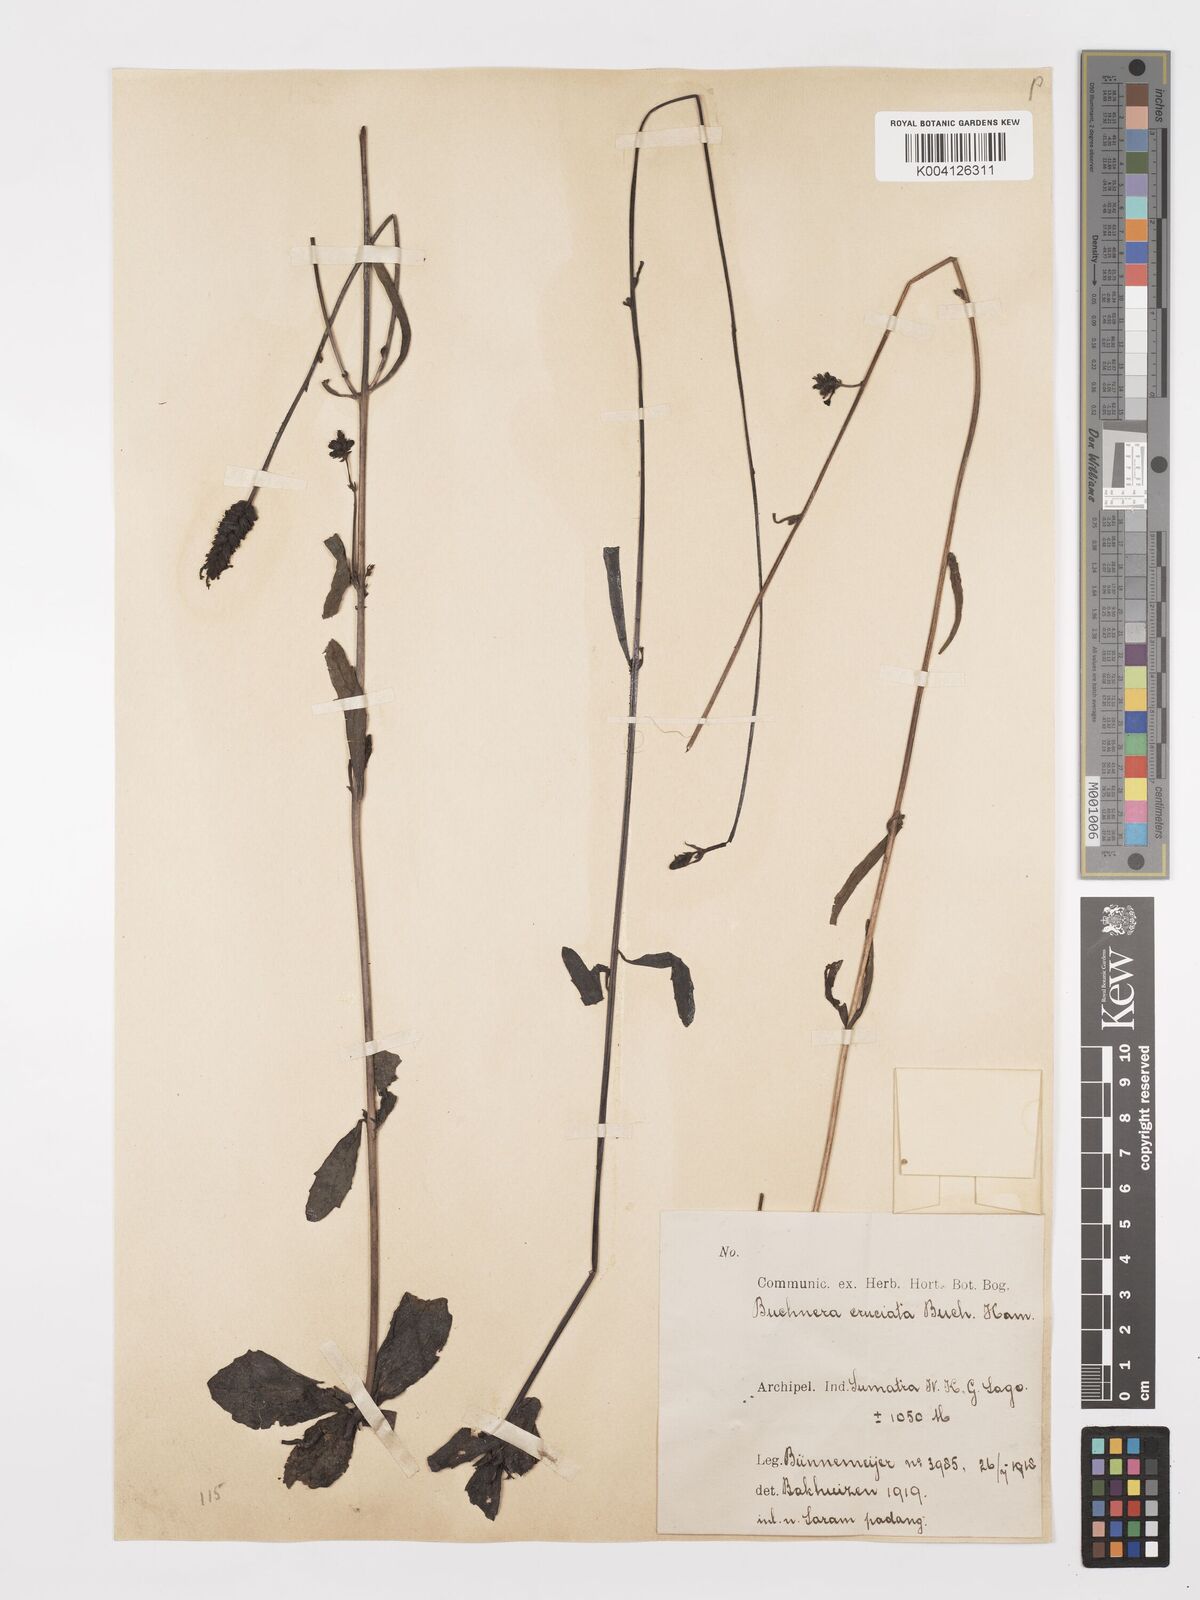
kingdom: Plantae
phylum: Tracheophyta
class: Magnoliopsida
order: Lamiales
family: Orobanchaceae
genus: Buchnera
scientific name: Buchnera cruciata
